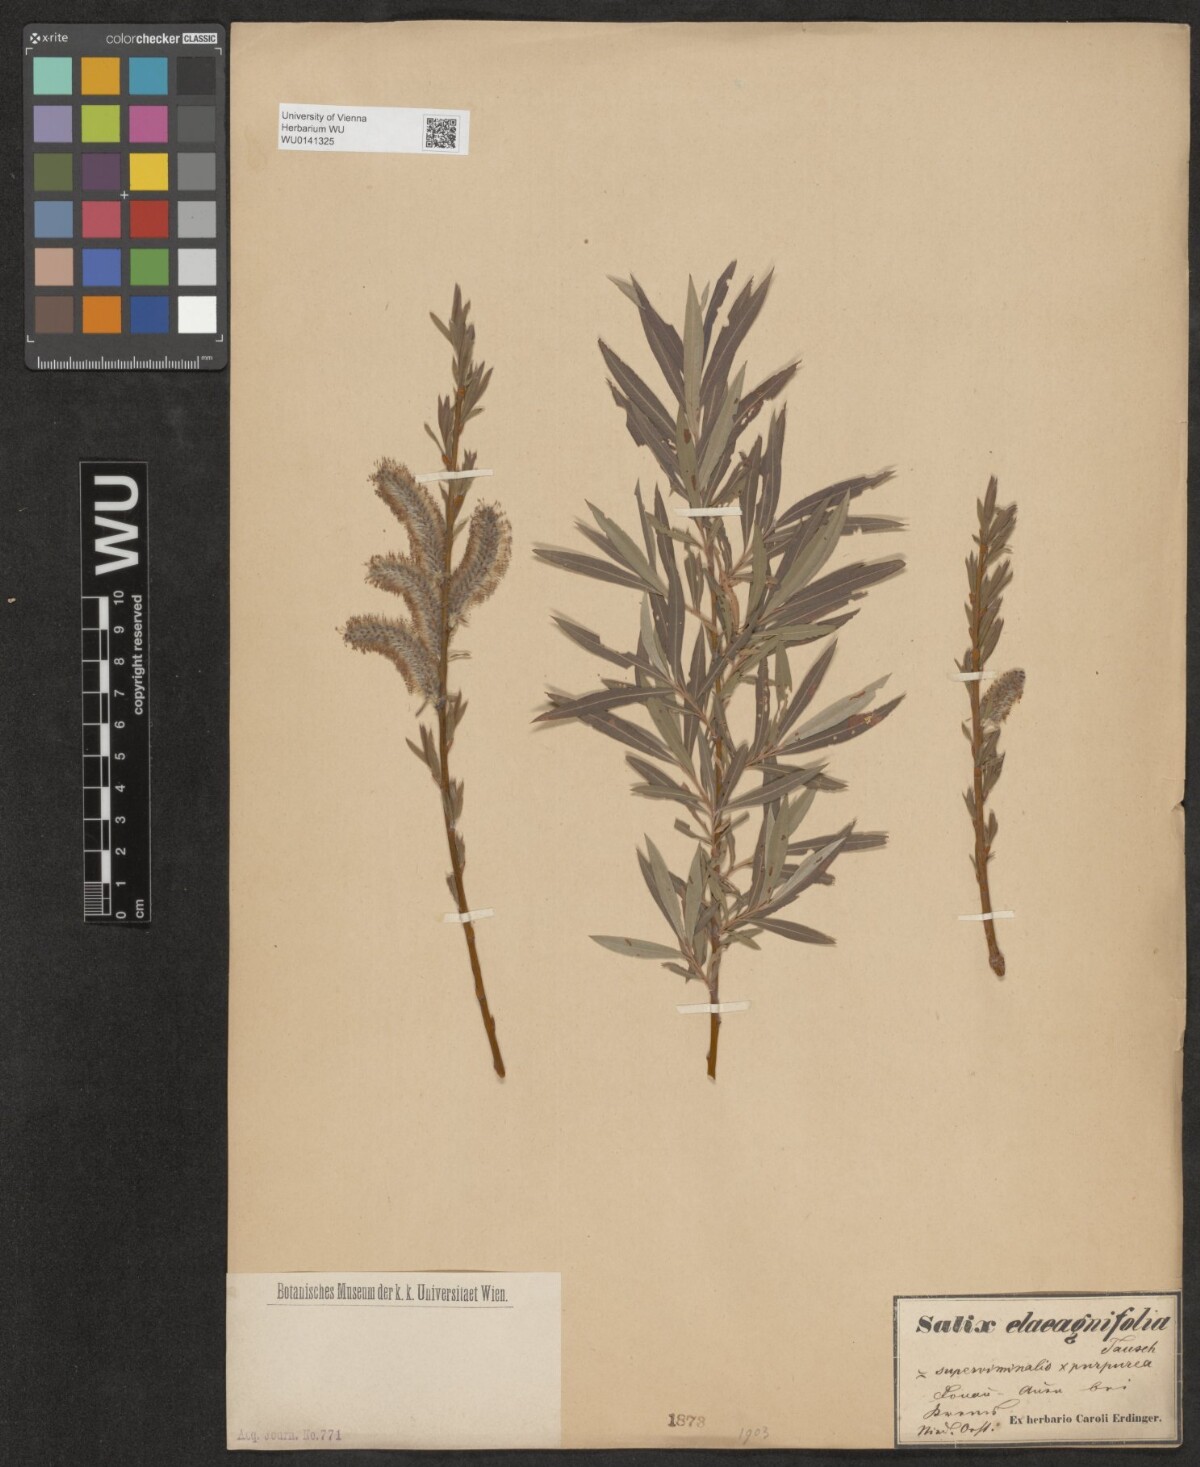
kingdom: Plantae
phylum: Tracheophyta
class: Magnoliopsida
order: Malpighiales
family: Salicaceae
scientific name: Salicaceae
